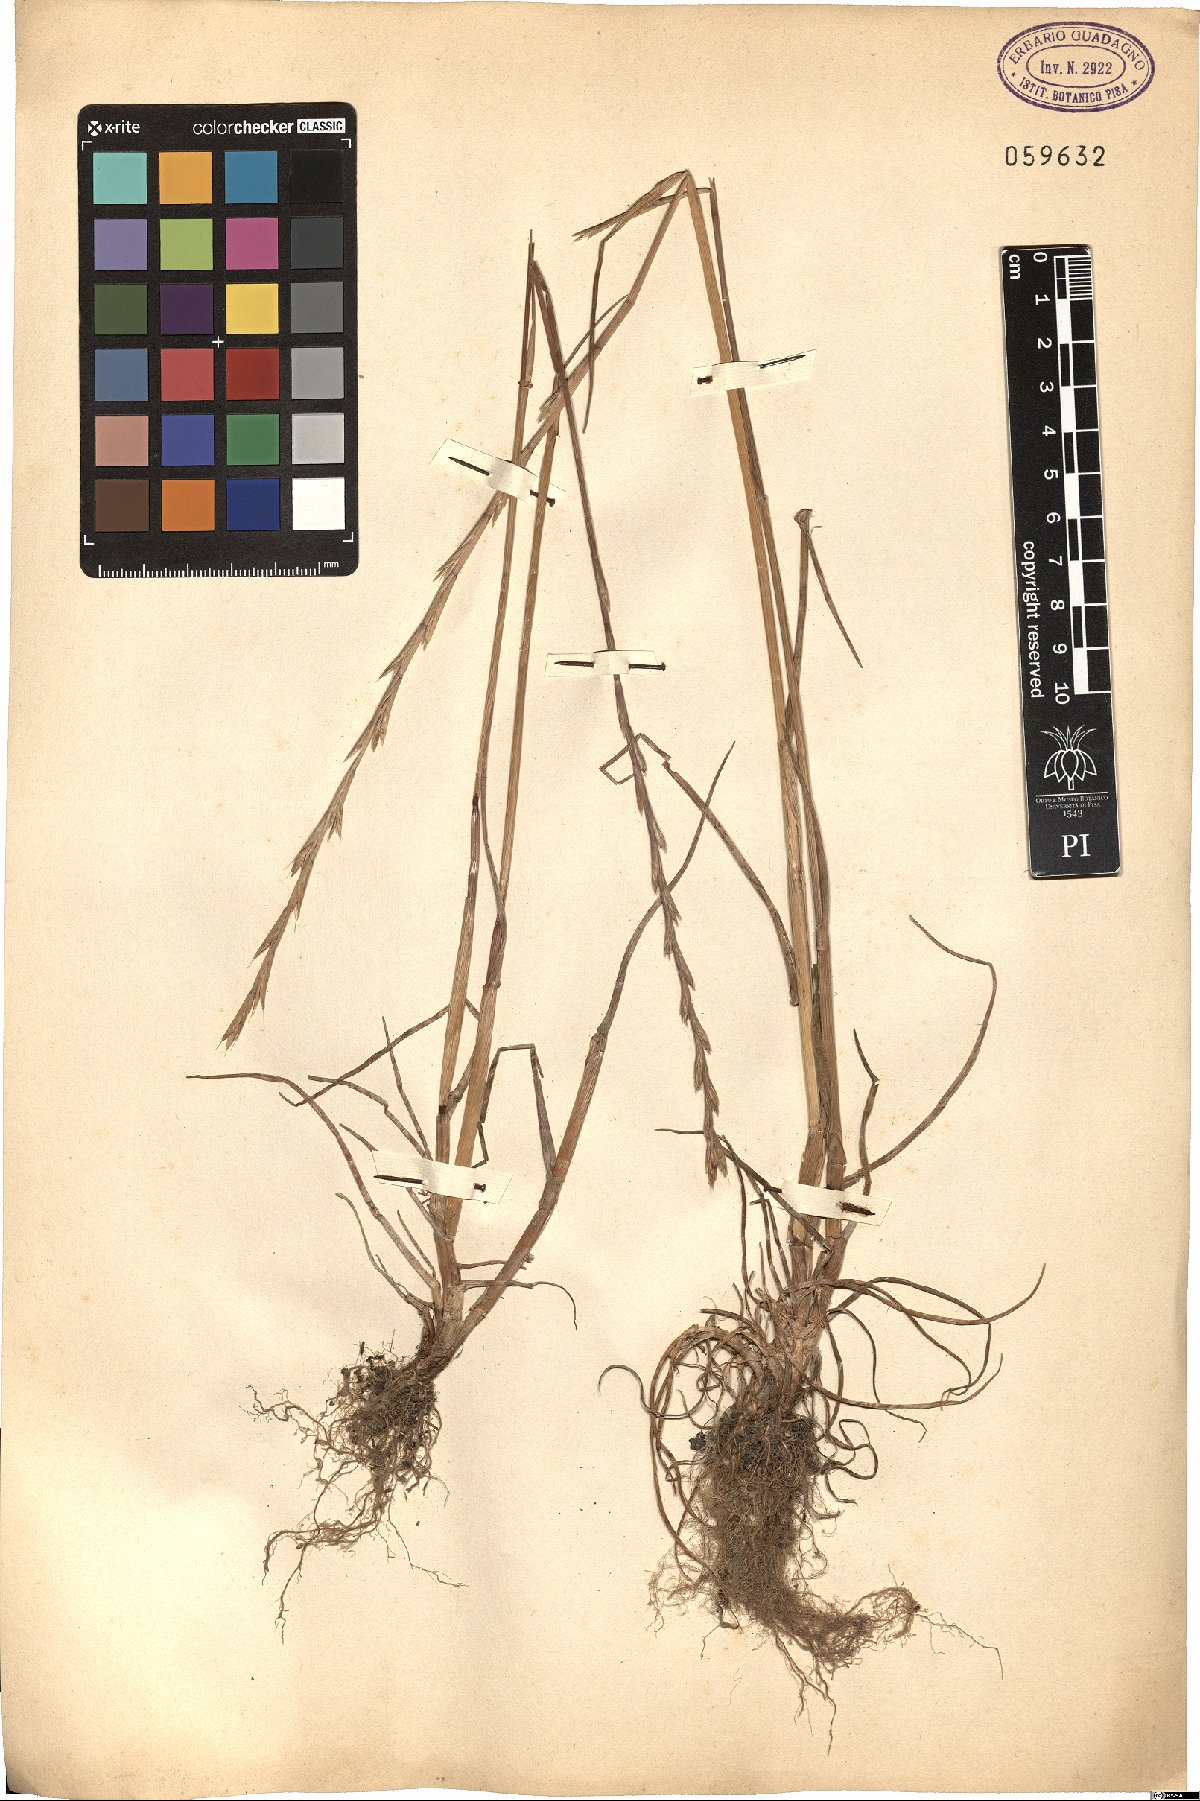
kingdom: Plantae
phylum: Tracheophyta
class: Liliopsida
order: Poales
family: Poaceae
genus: Lolium
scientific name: Lolium
